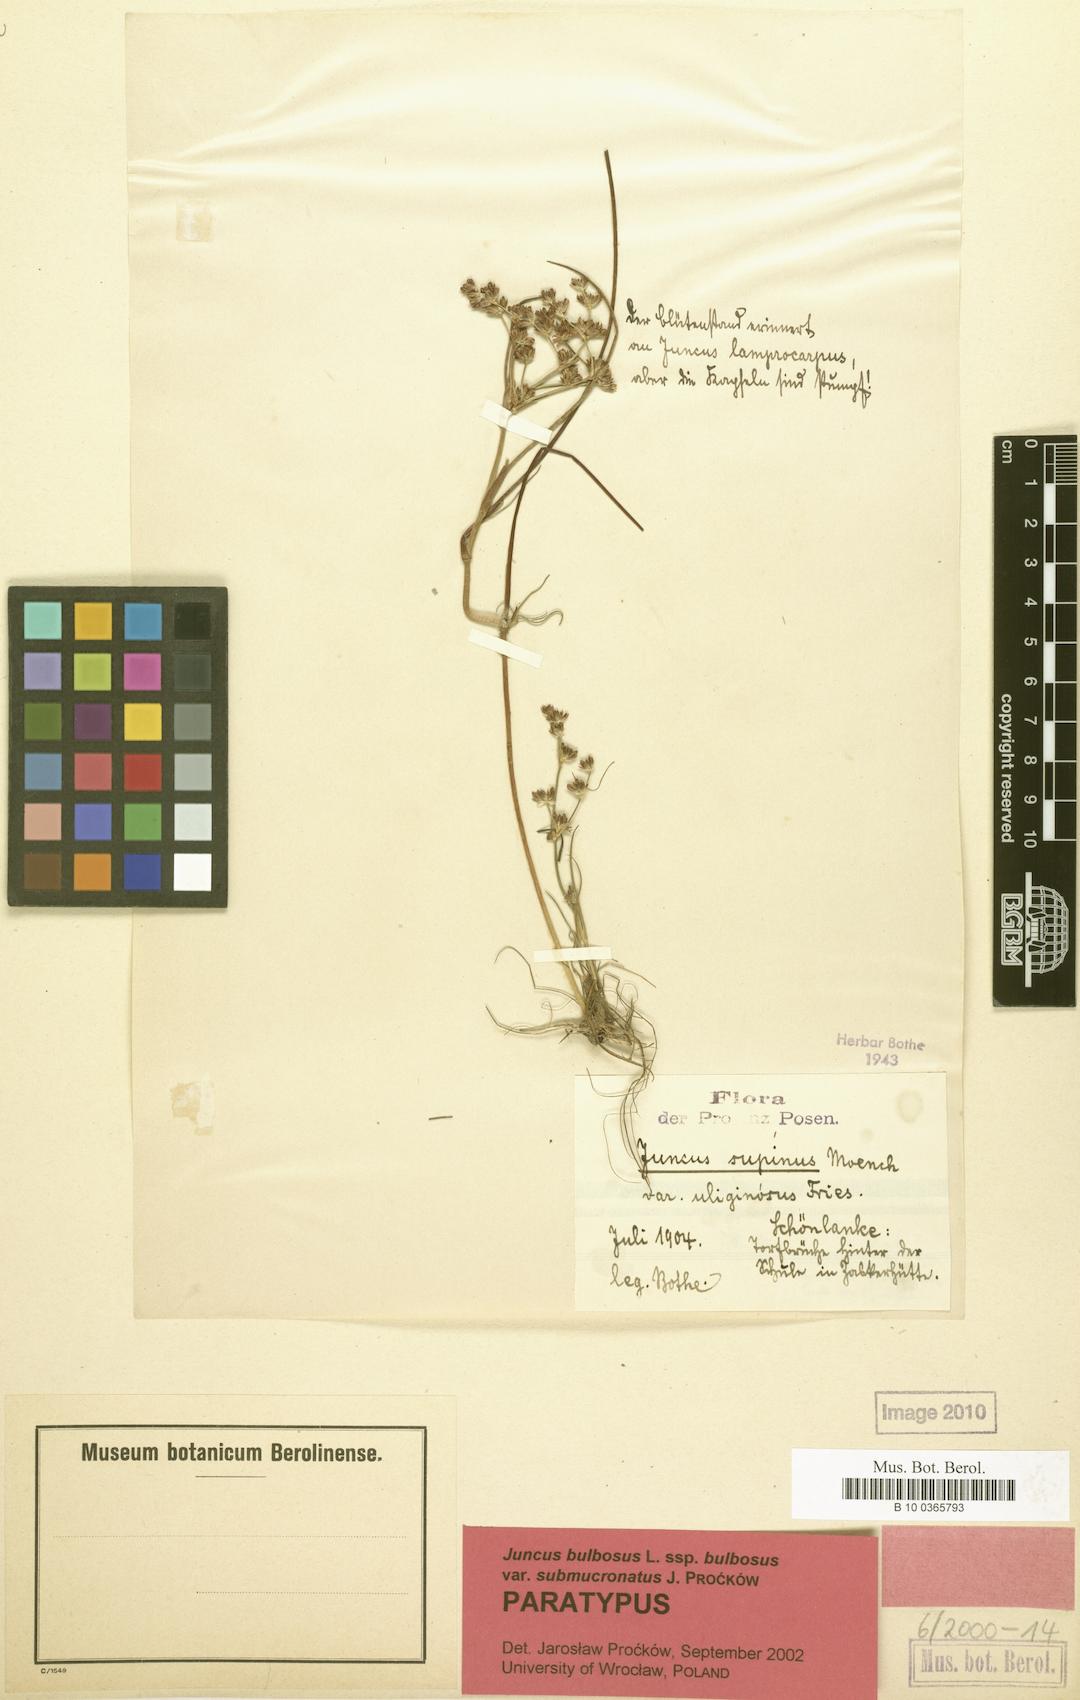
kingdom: Plantae
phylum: Tracheophyta
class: Liliopsida
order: Poales
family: Juncaceae
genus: Juncus
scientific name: Juncus bulbosus
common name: Bulbous rush
